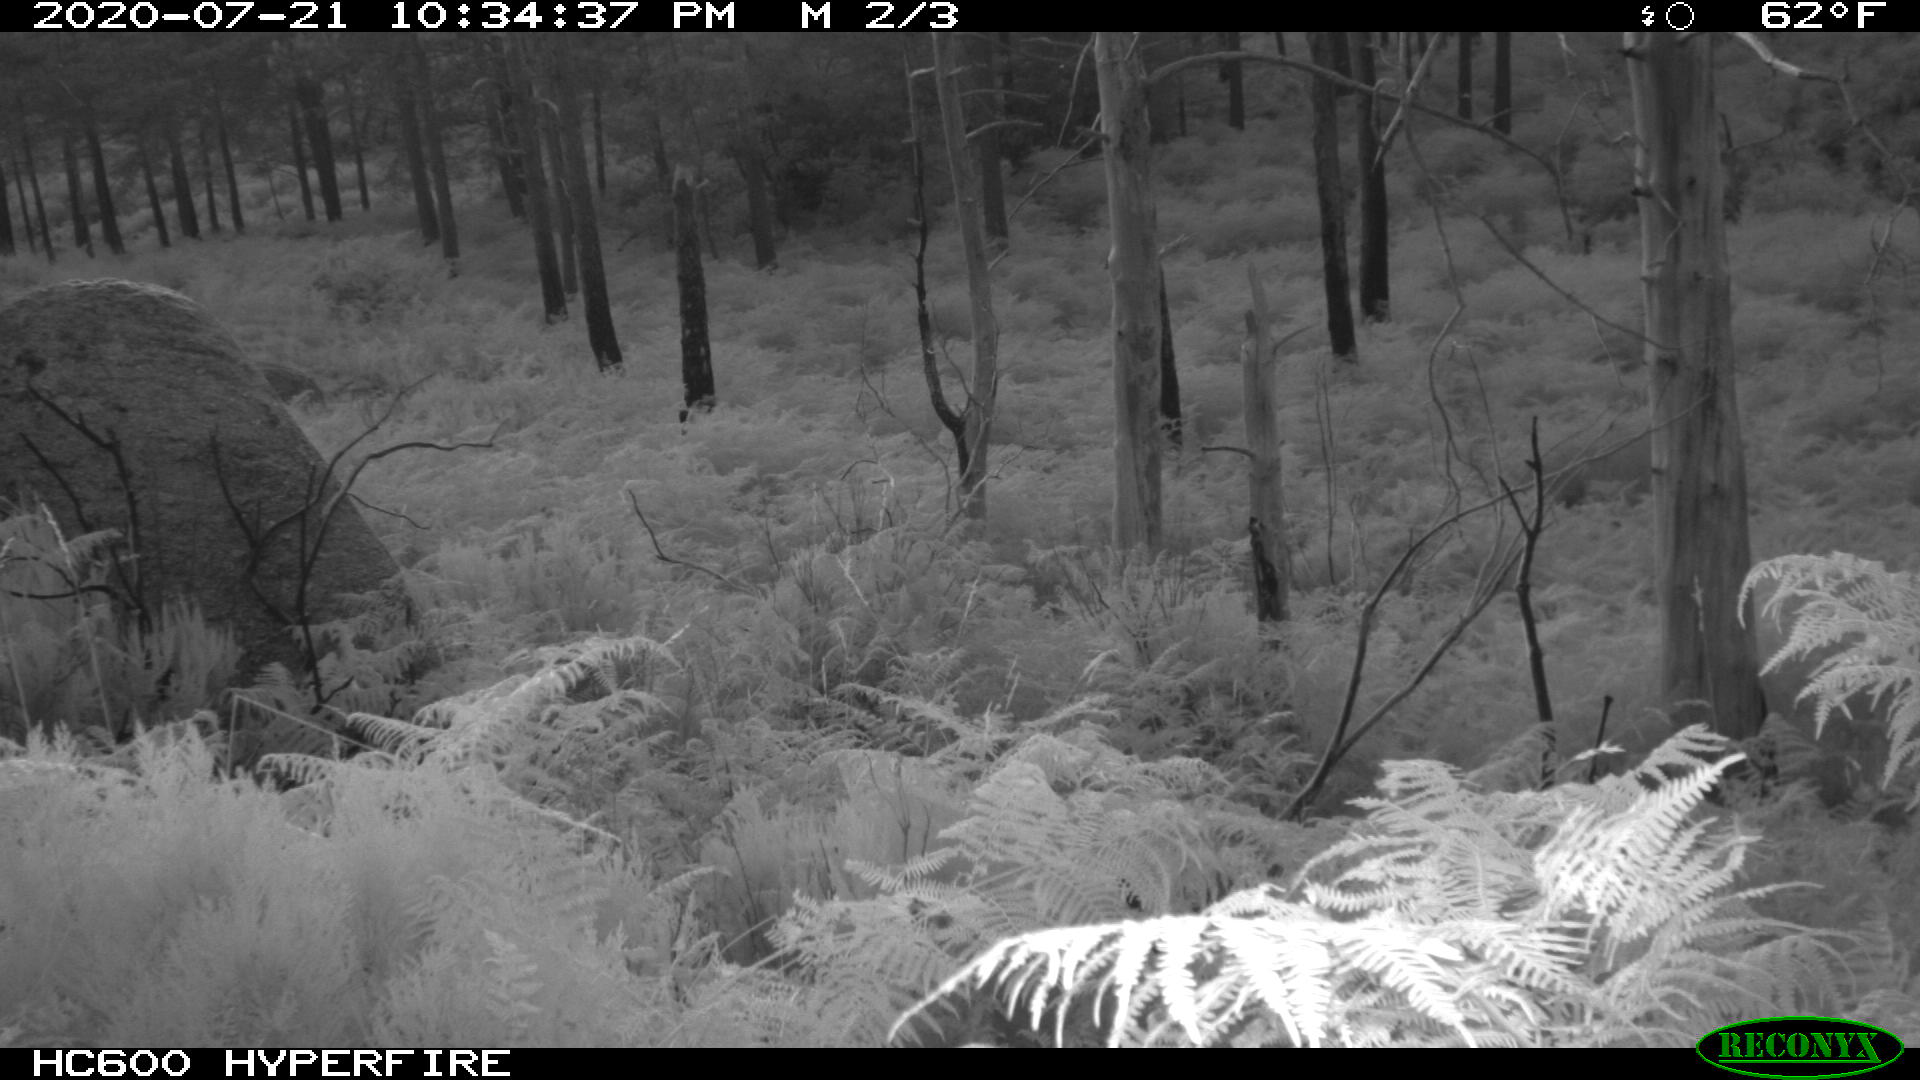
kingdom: Animalia
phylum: Chordata
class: Mammalia
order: Perissodactyla
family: Equidae
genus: Equus
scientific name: Equus caballus
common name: Horse
